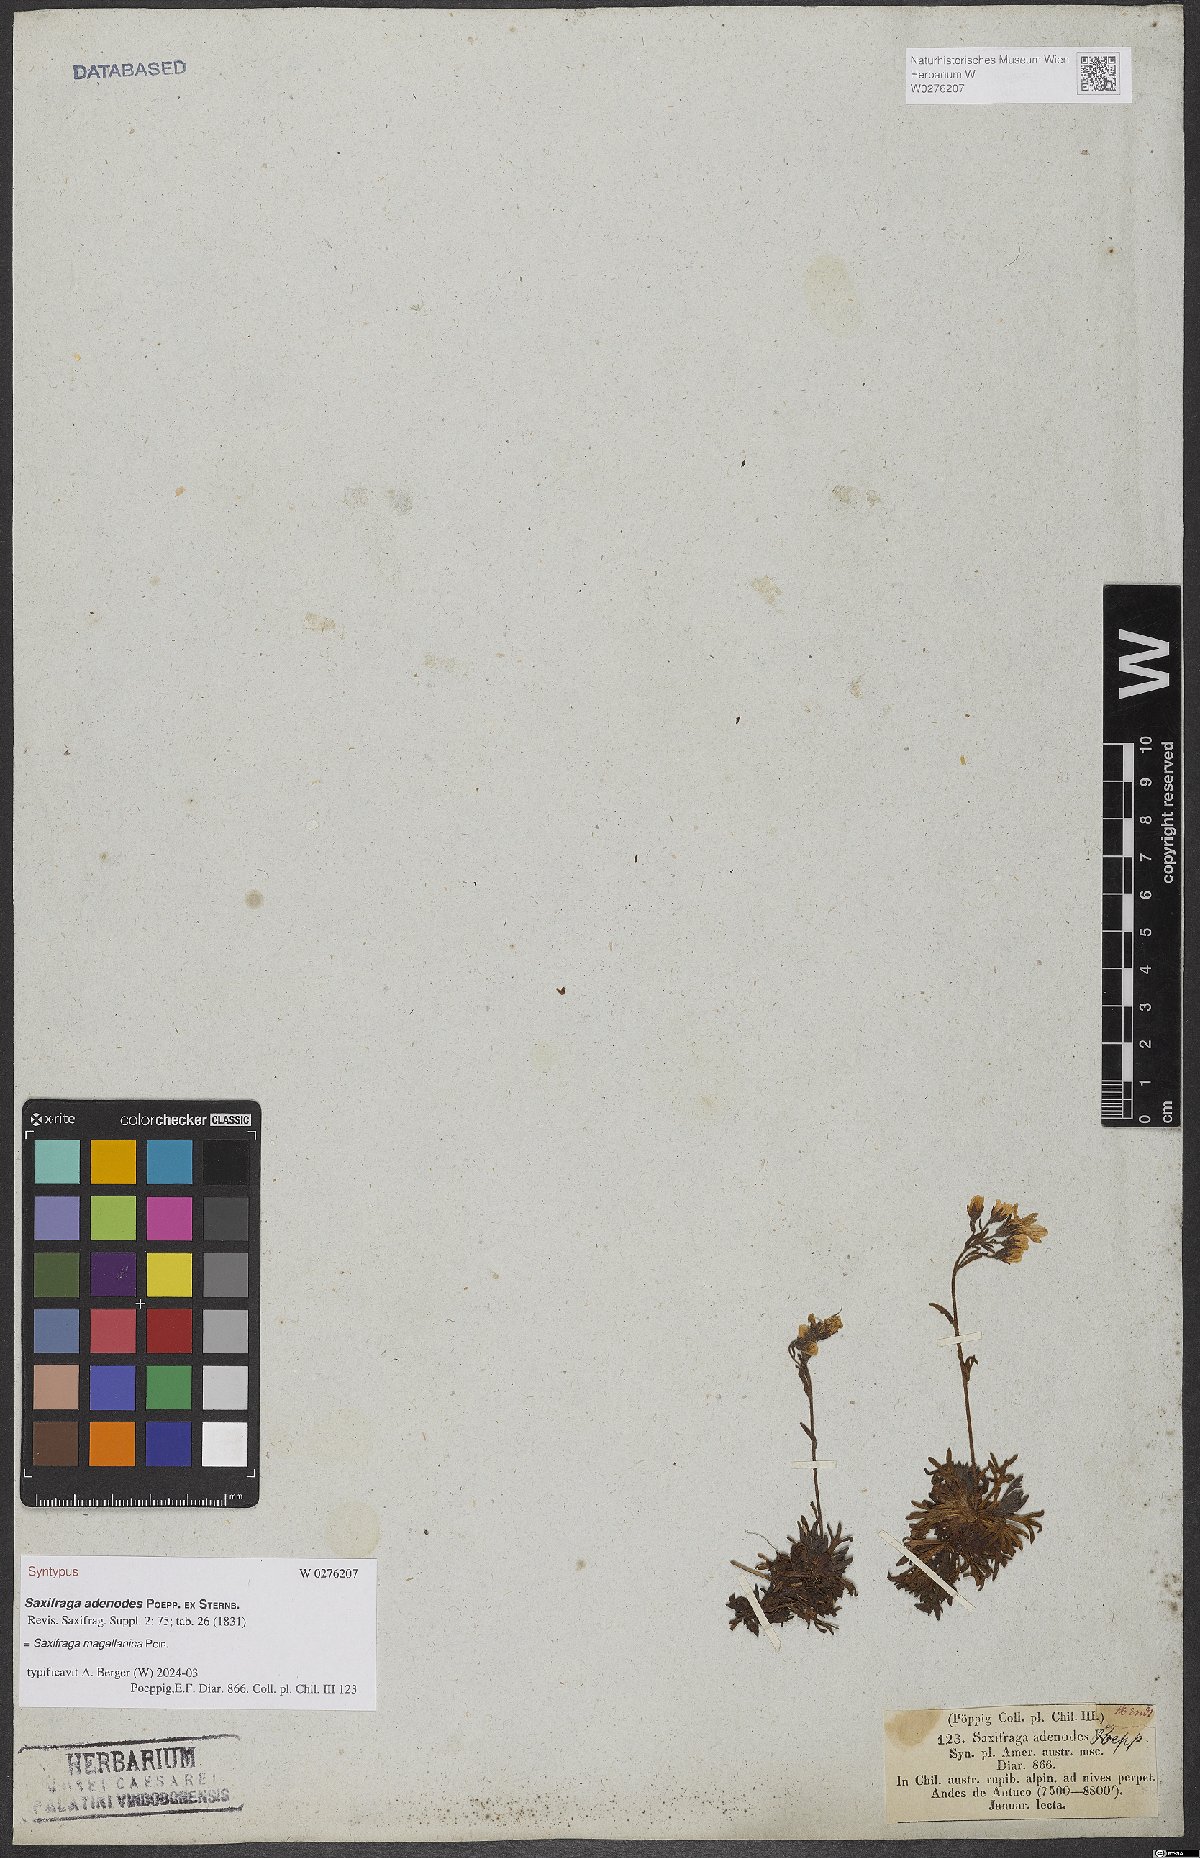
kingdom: Plantae
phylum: Tracheophyta
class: Magnoliopsida
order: Saxifragales
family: Saxifragaceae
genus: Saxifraga
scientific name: Saxifraga magellanica
